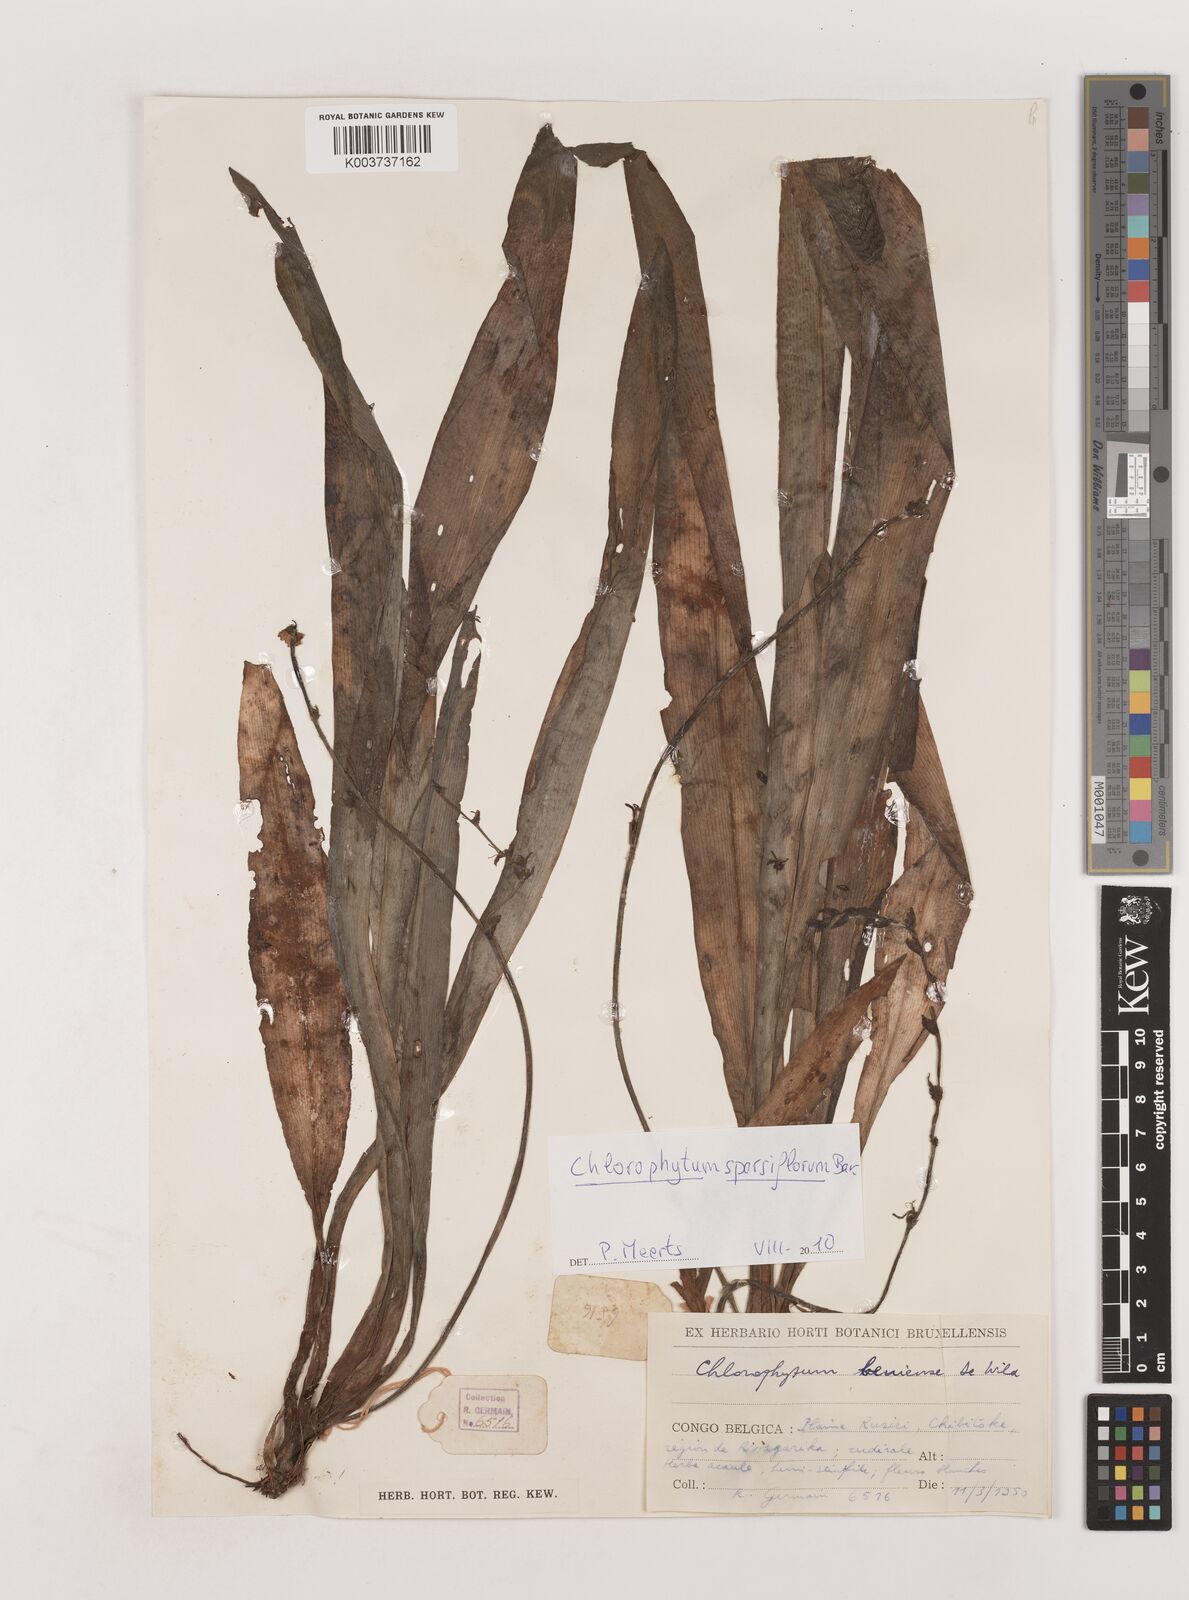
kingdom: Plantae
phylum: Tracheophyta
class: Liliopsida
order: Asparagales
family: Asparagaceae
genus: Chlorophytum
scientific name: Chlorophytum sparsiflorum
